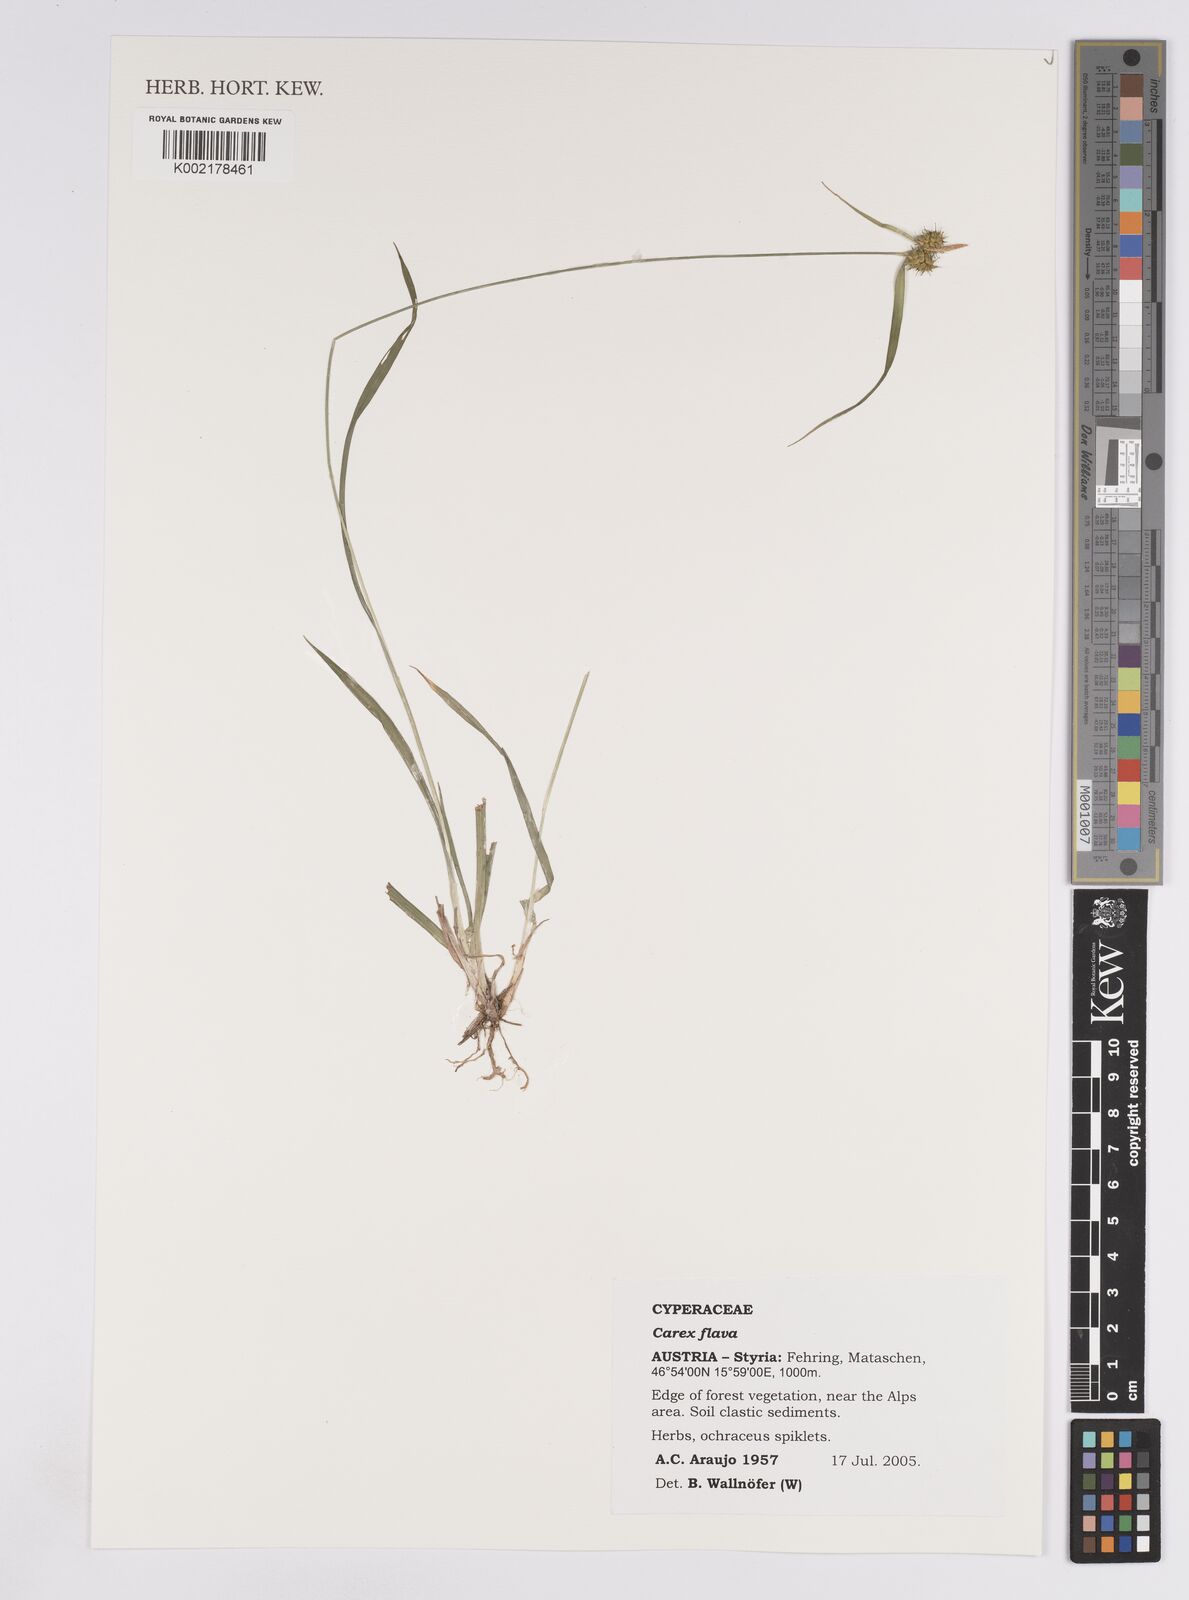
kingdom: Plantae
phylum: Tracheophyta
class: Liliopsida
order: Poales
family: Cyperaceae
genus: Carex
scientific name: Carex demissa
